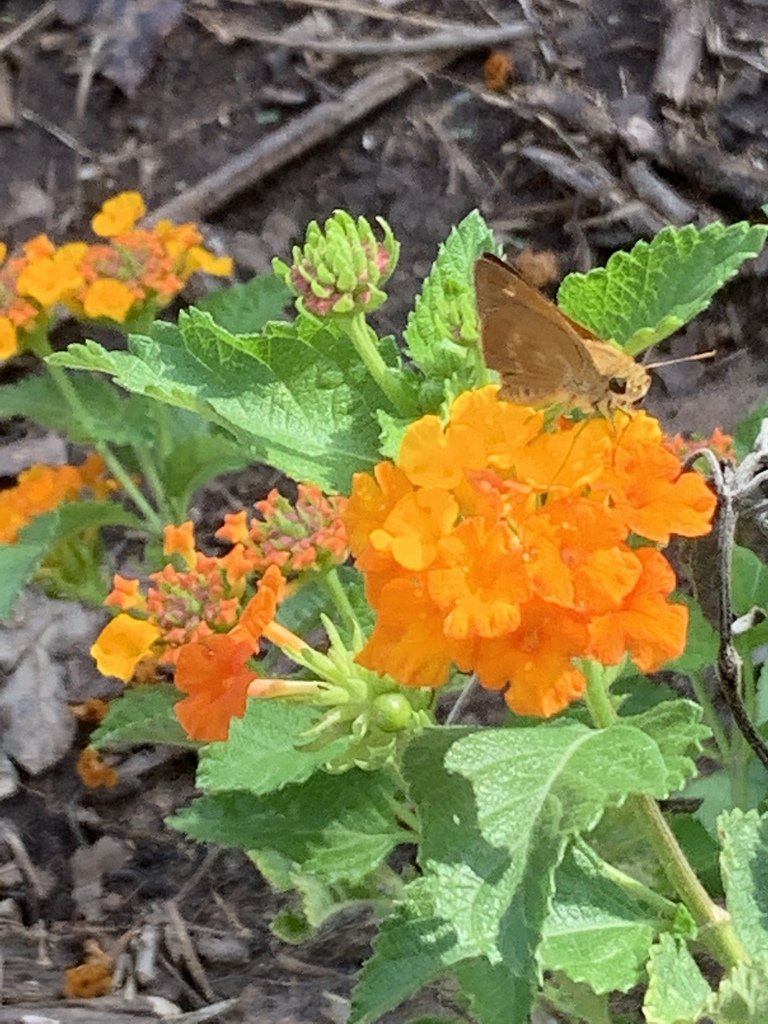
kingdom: Animalia
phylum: Arthropoda
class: Insecta
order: Lepidoptera
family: Hesperiidae
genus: Wallengrenia
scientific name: Wallengrenia otho
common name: Southern Broken-Dash
